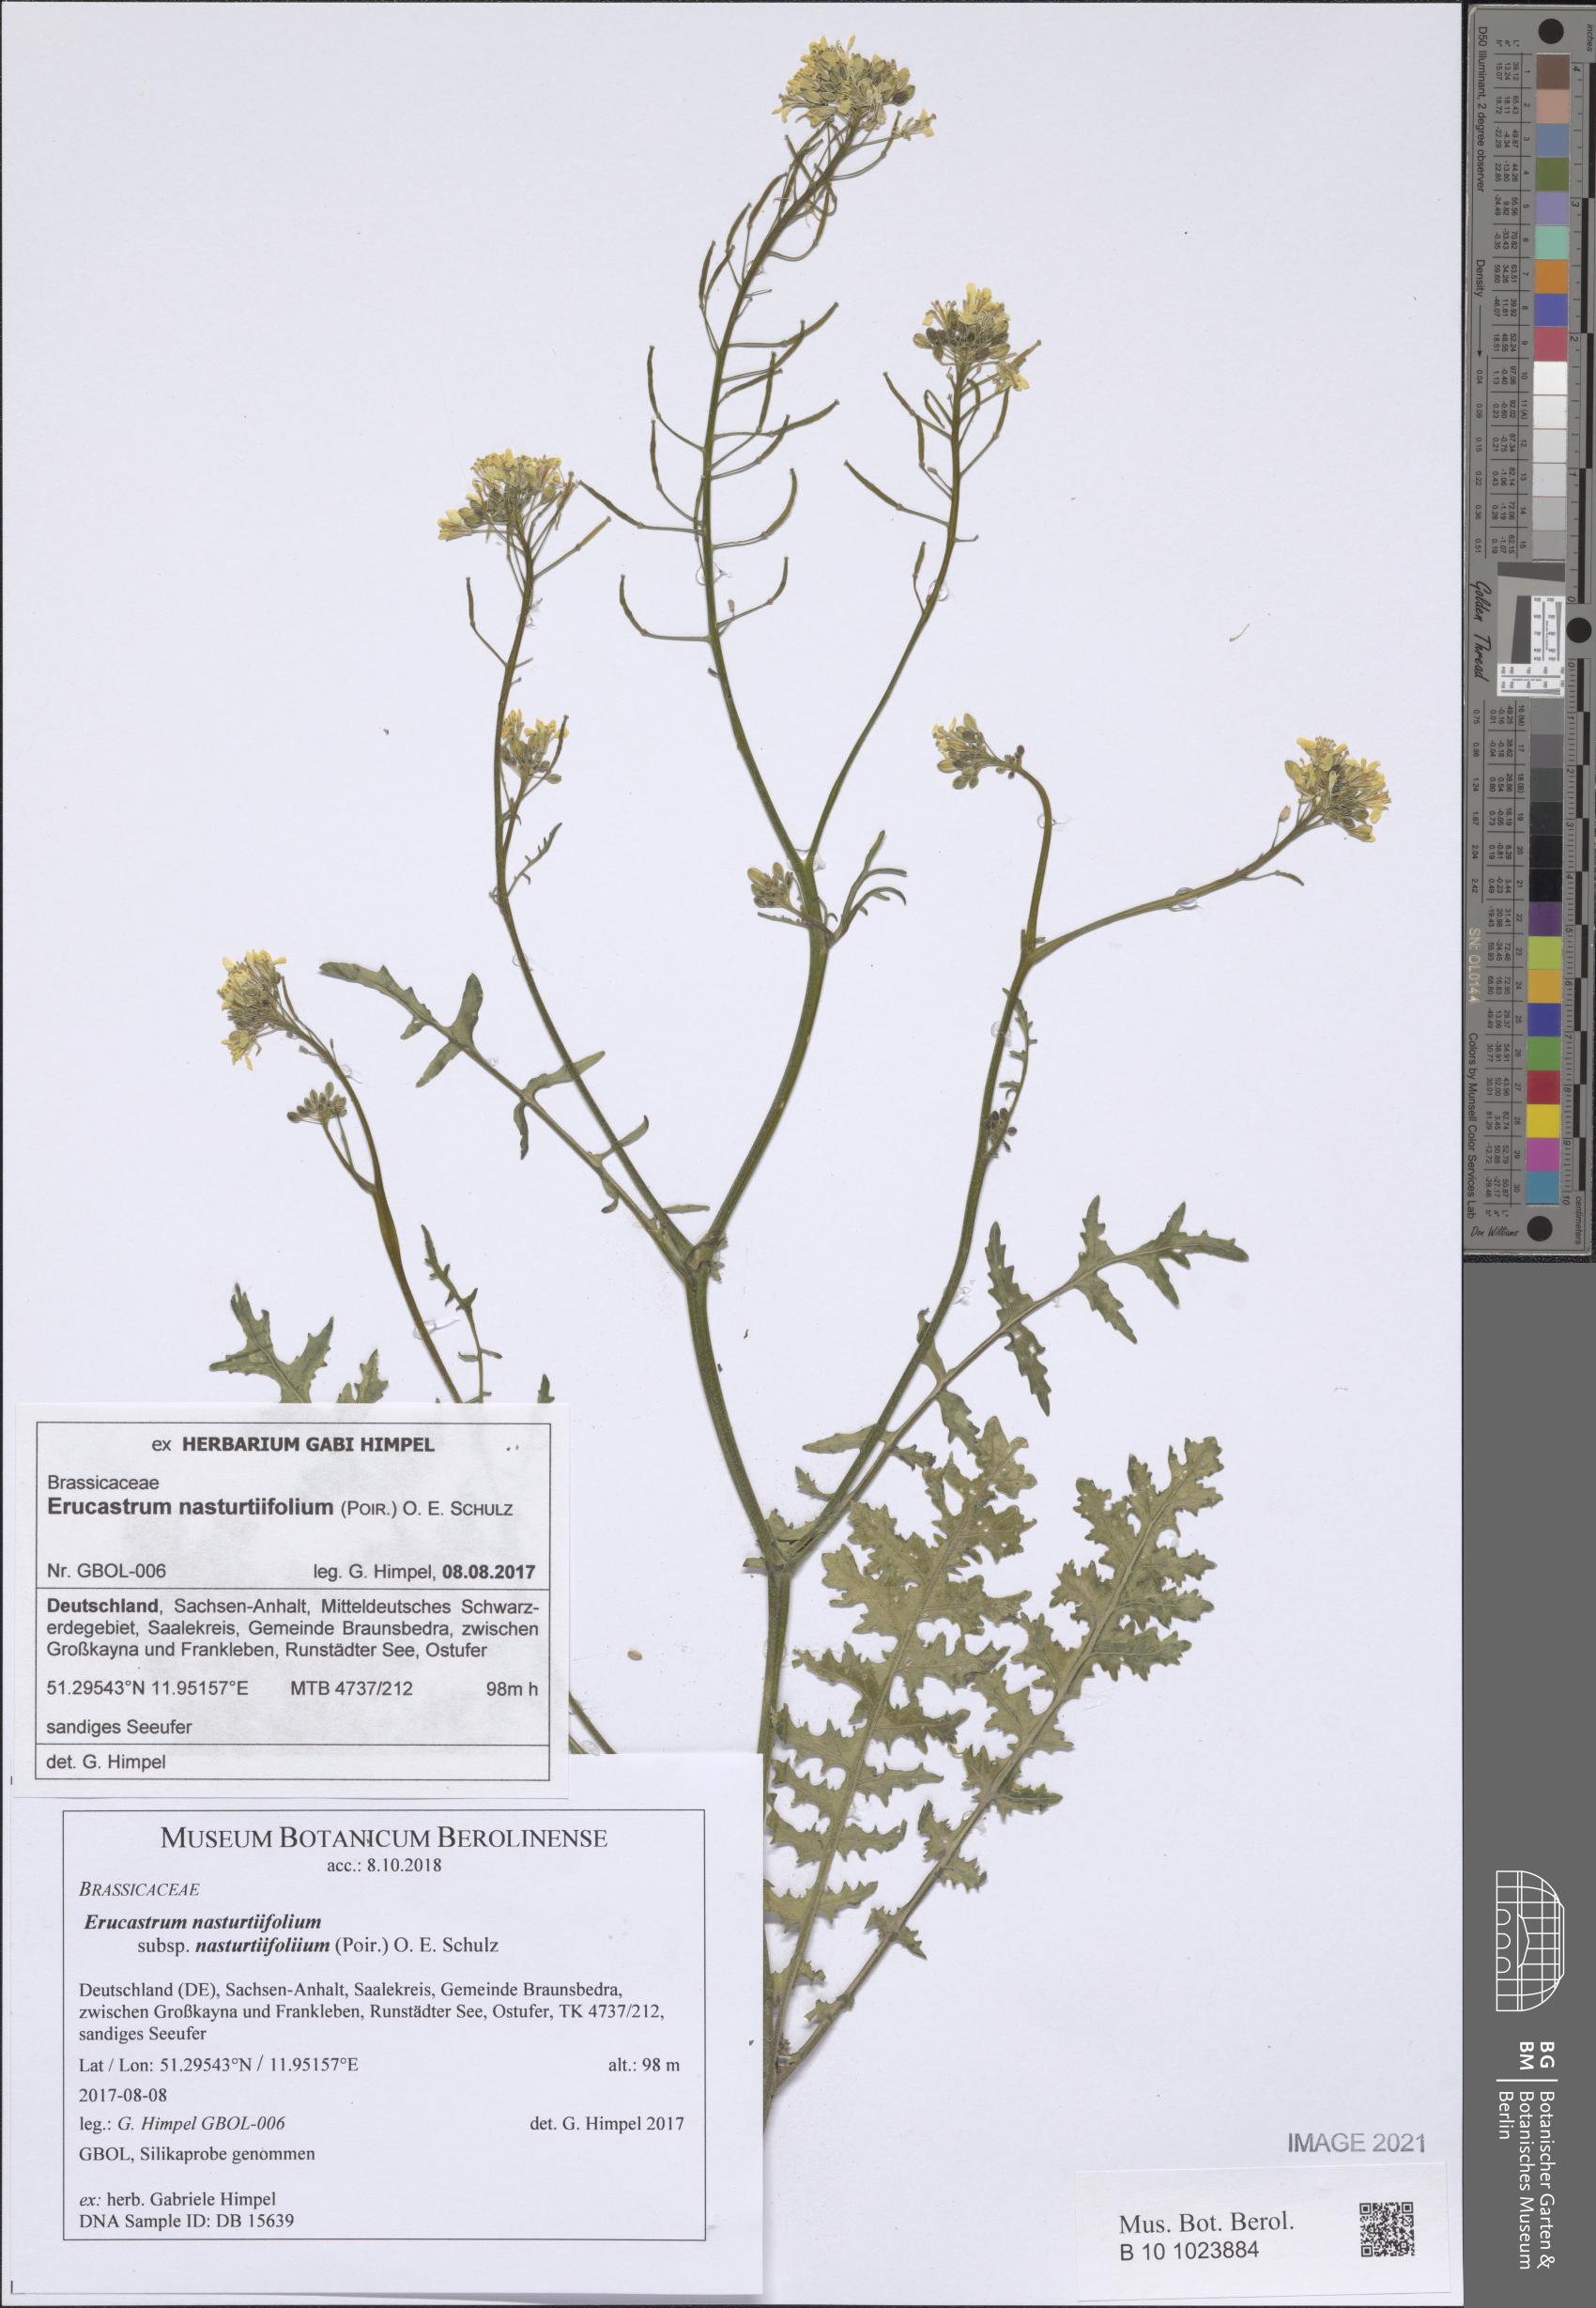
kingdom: Plantae
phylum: Tracheophyta
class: Magnoliopsida
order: Brassicales
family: Brassicaceae
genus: Erucastrum
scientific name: Erucastrum nasturtiifolium
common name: Watercress-leaf rocket
